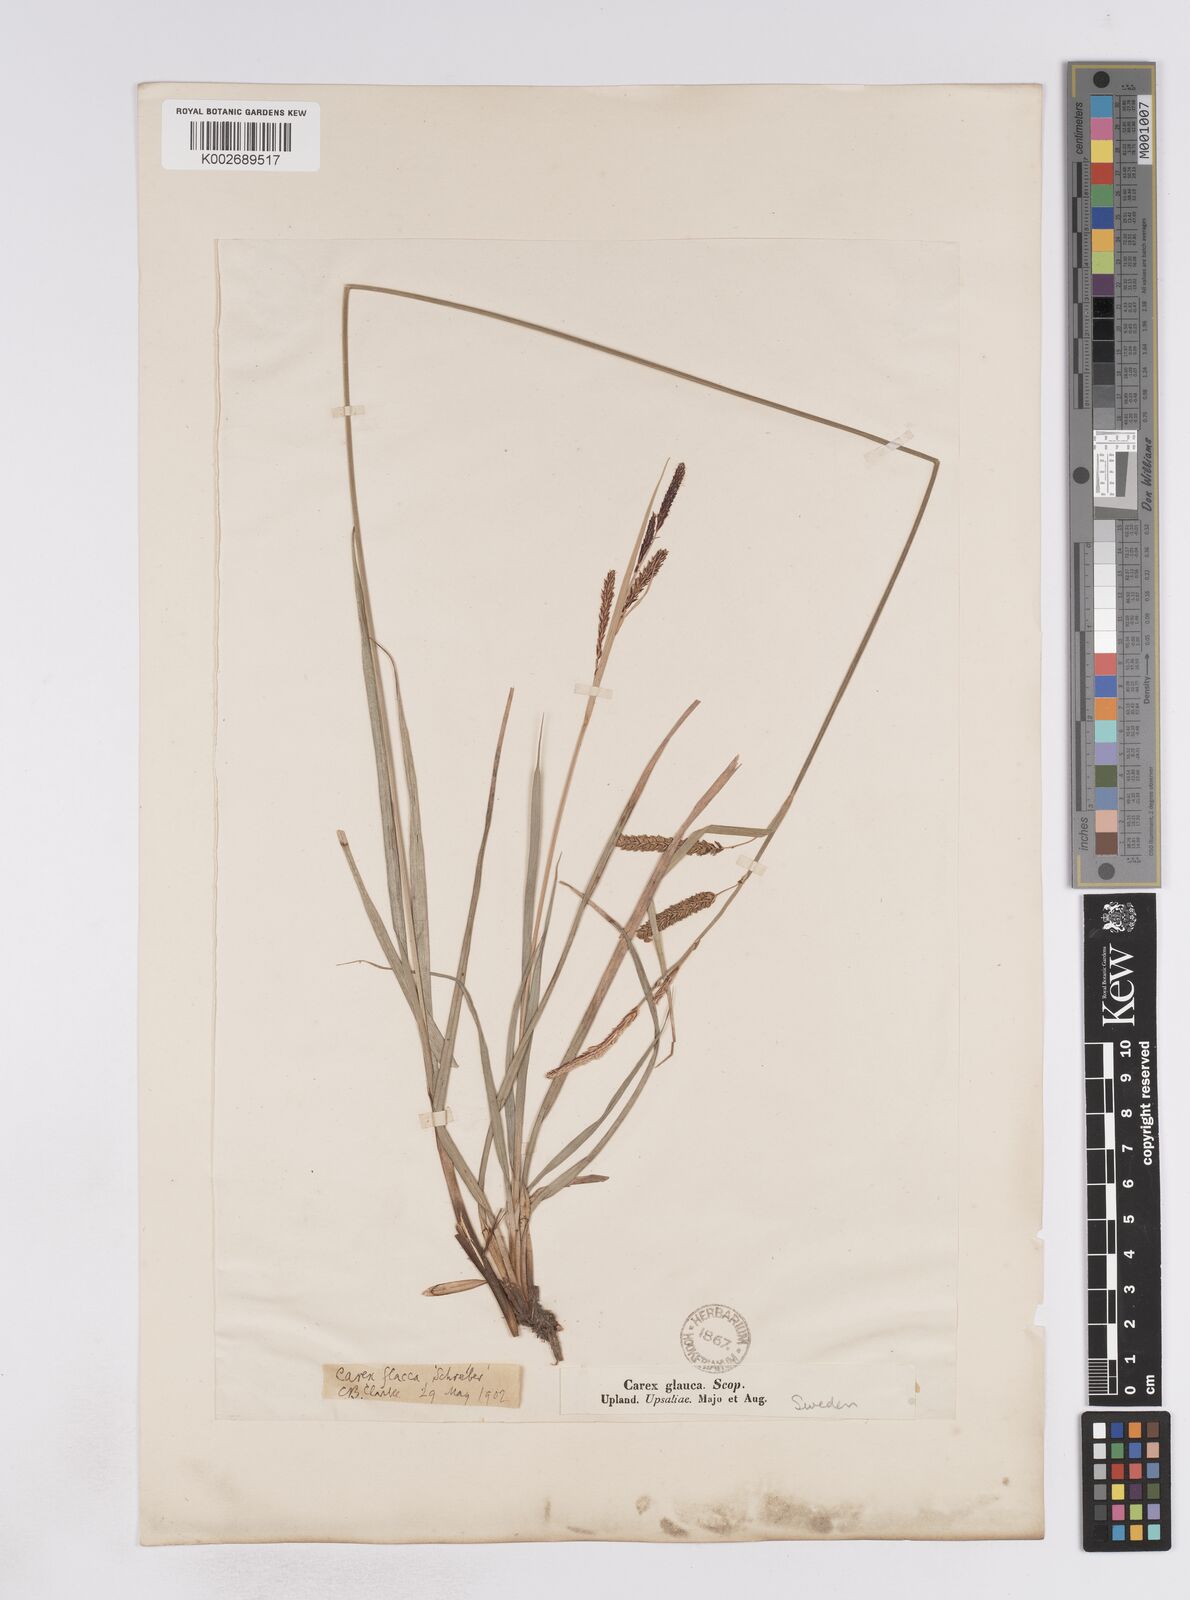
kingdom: Plantae
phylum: Tracheophyta
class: Liliopsida
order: Poales
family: Cyperaceae
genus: Carex
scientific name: Carex flacca
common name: Glaucous sedge
